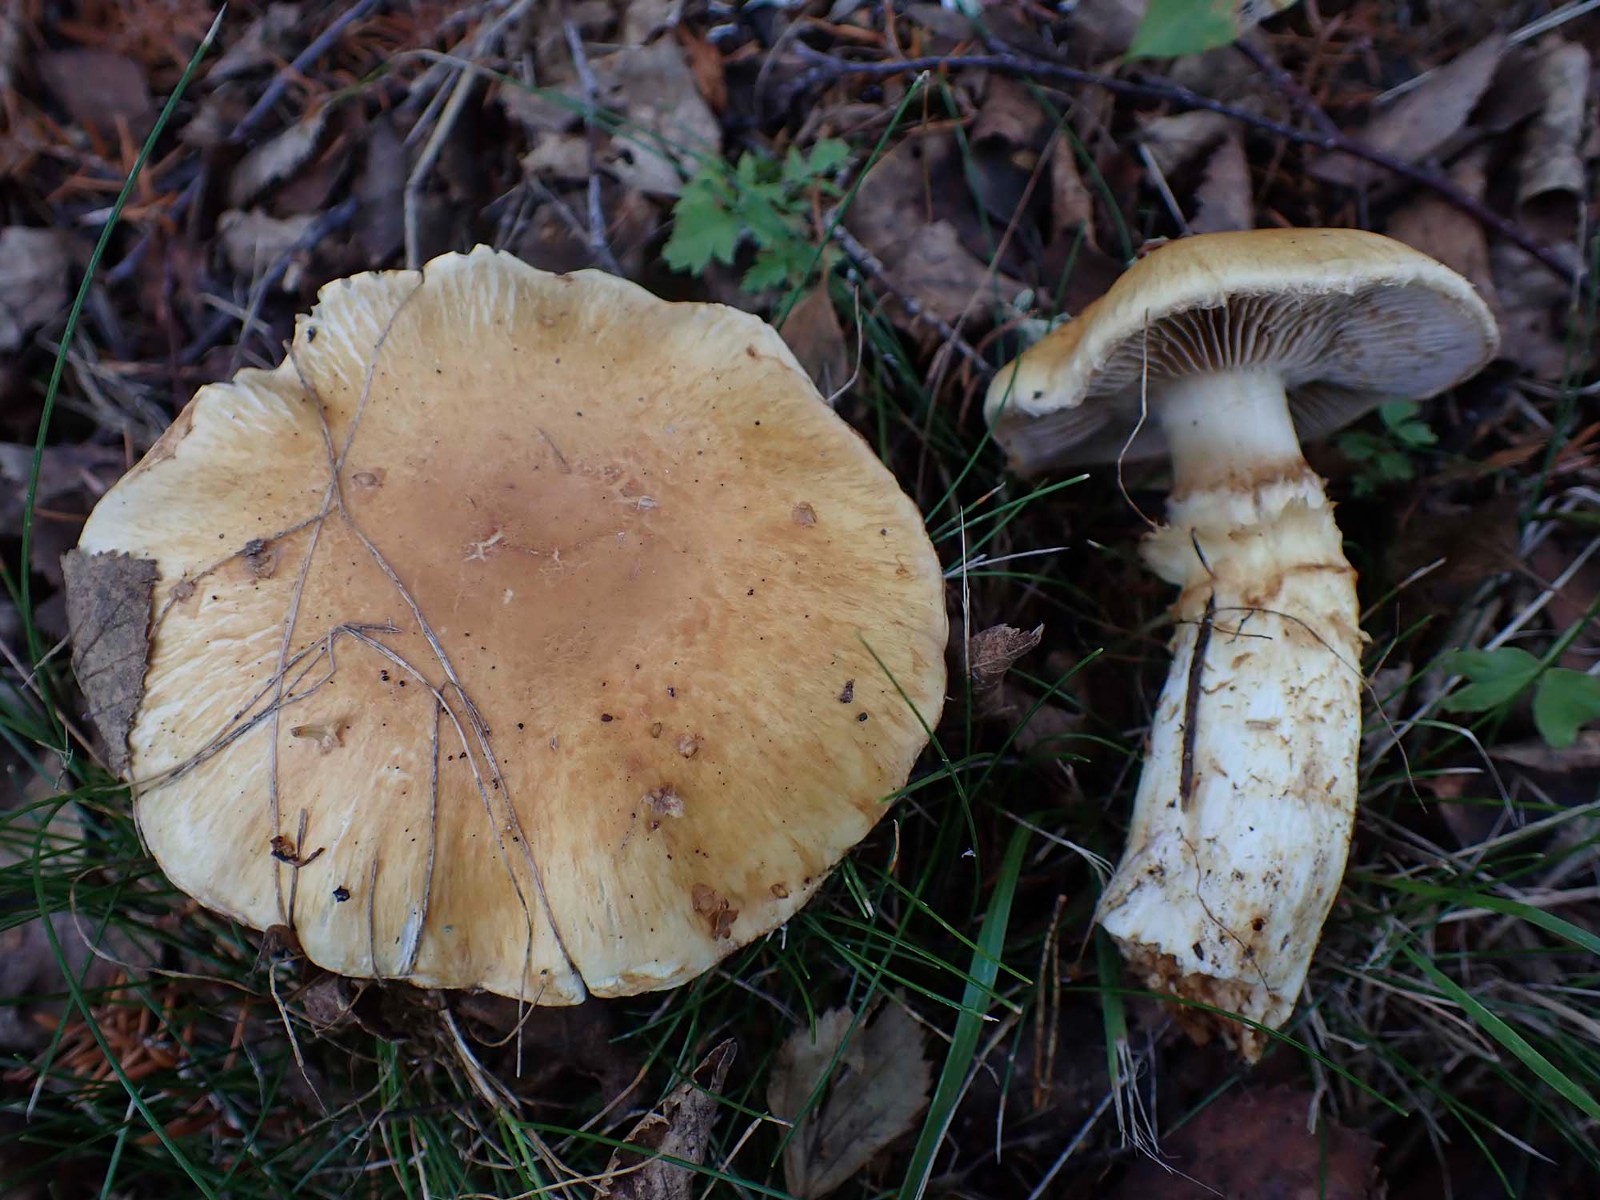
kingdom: Fungi
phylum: Basidiomycota
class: Agaricomycetes
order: Agaricales
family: Cortinariaceae
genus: Phlegmacium
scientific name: Phlegmacium triumphans
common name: gulbæltet slørhat
